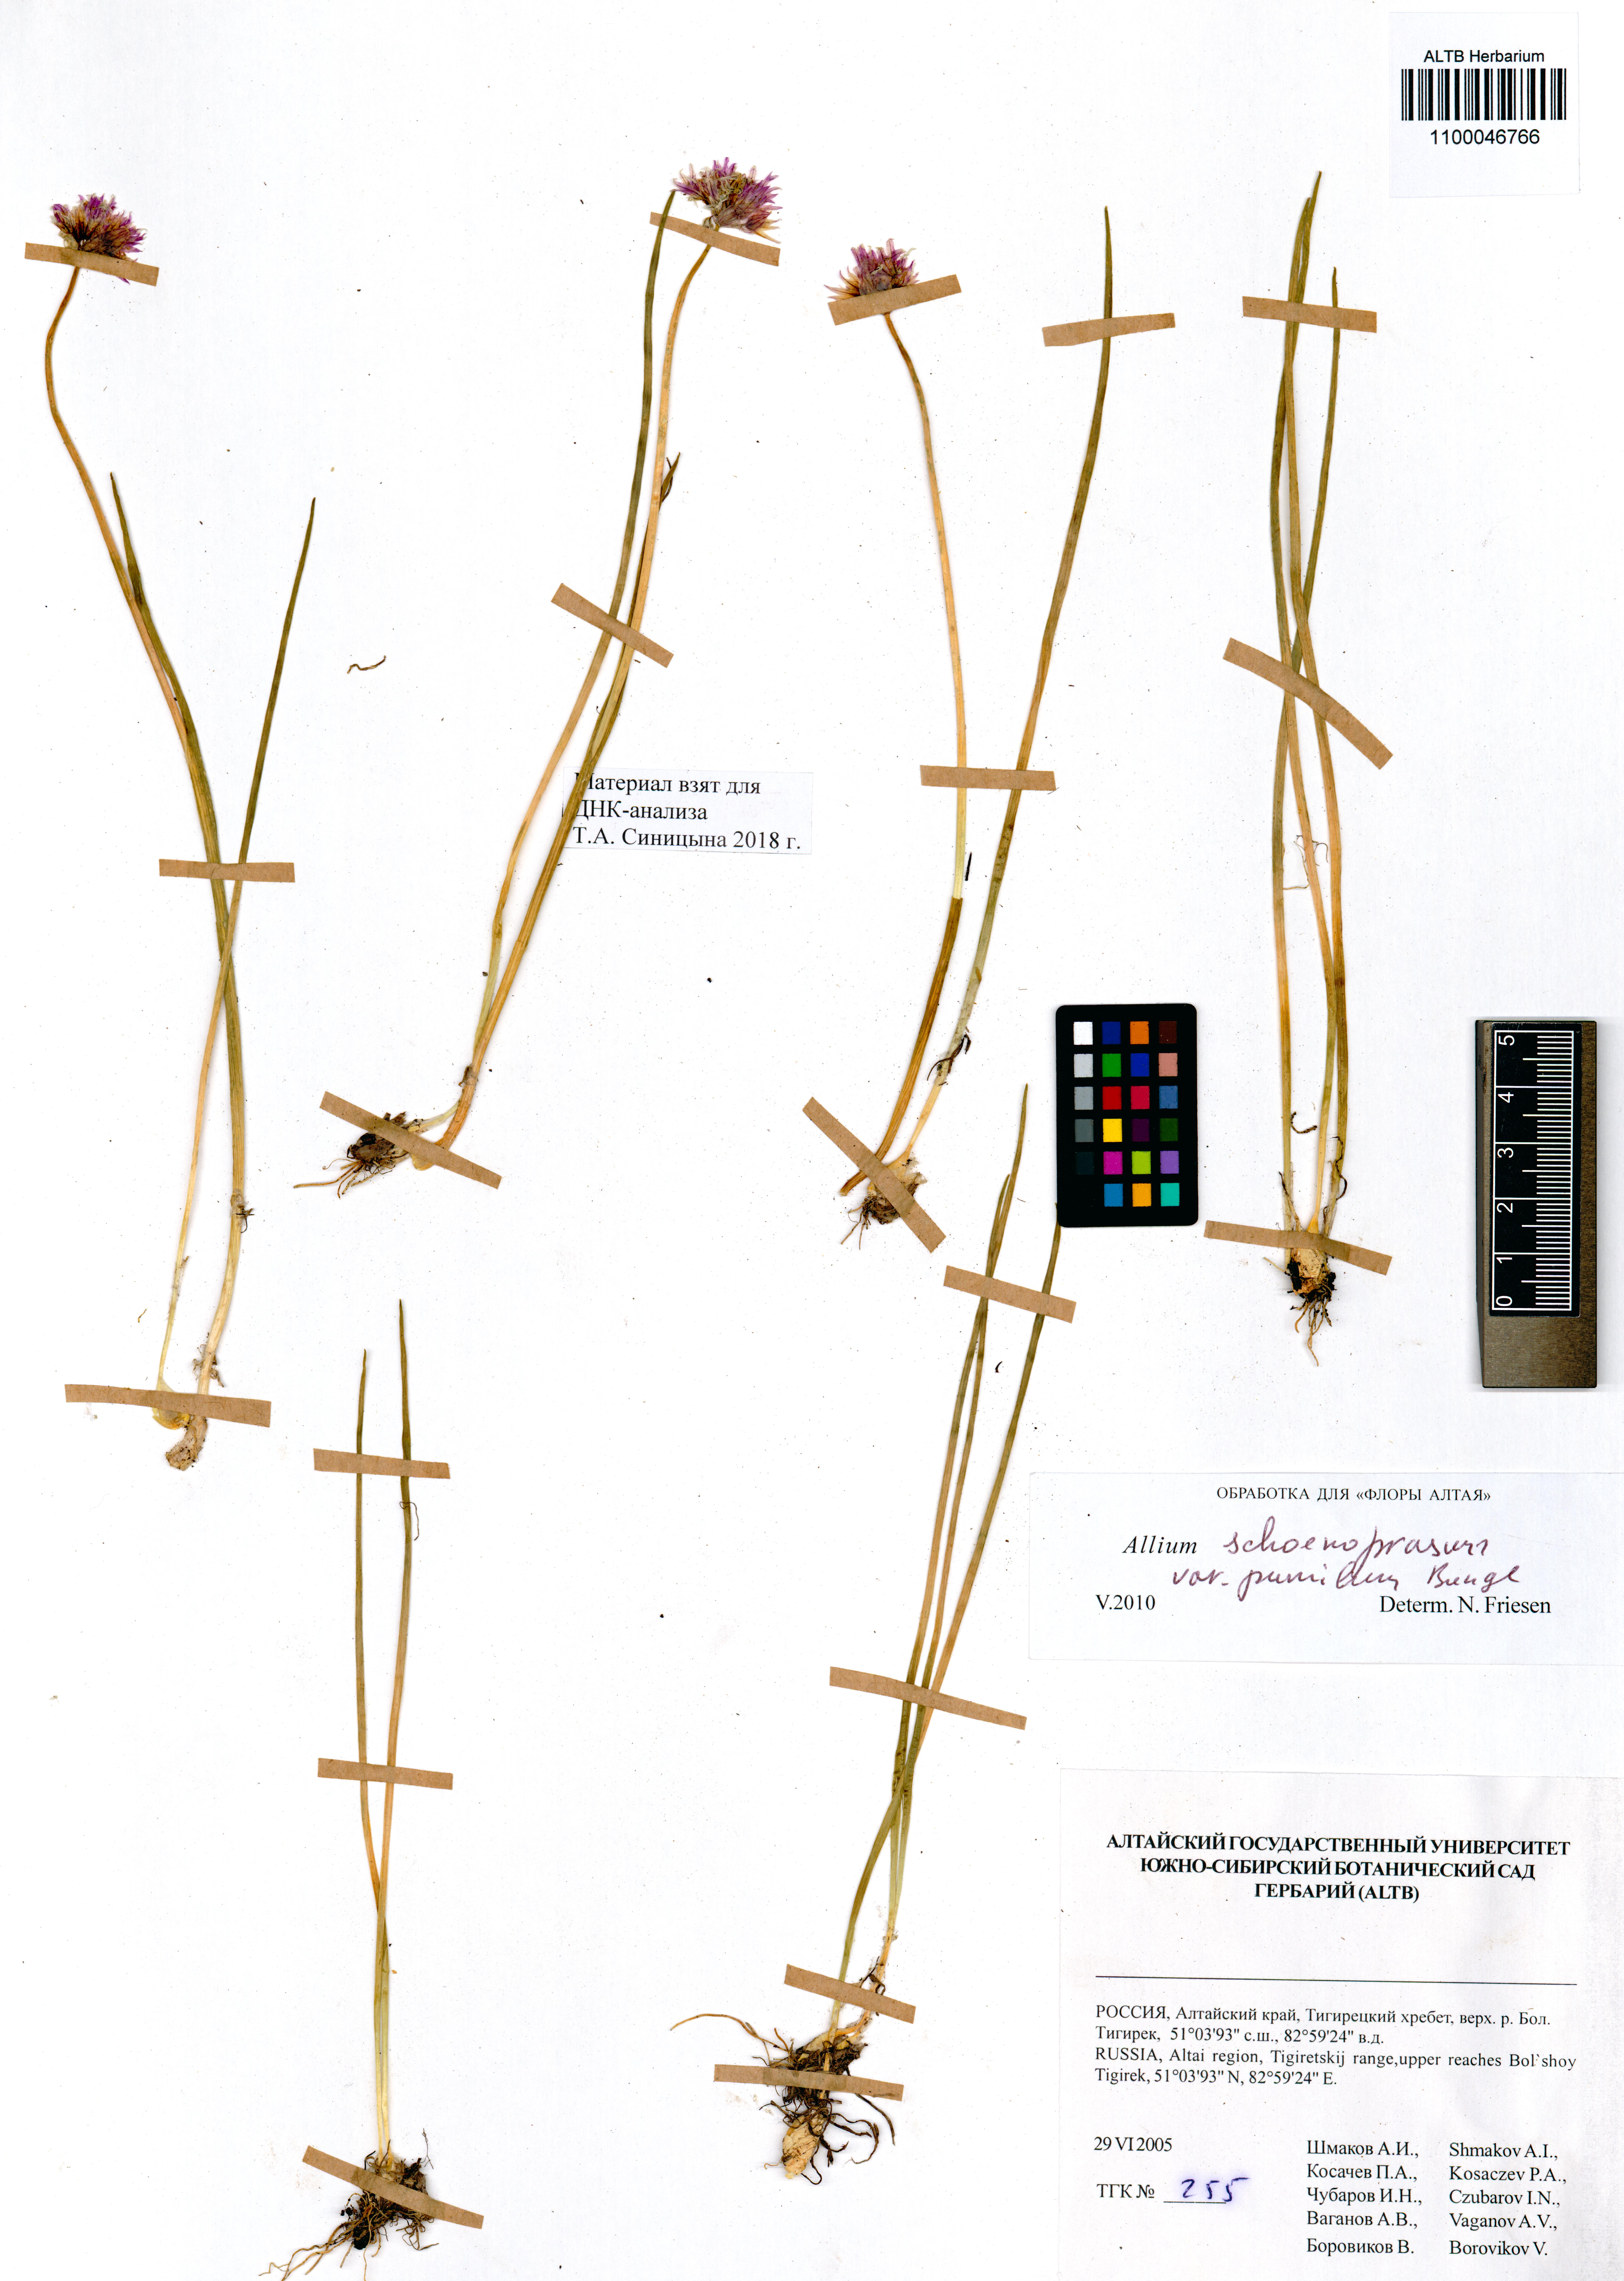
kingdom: Plantae
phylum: Tracheophyta
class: Liliopsida
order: Asparagales
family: Amaryllidaceae
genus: Allium
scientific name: Allium schoenoprasum
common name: Chives
